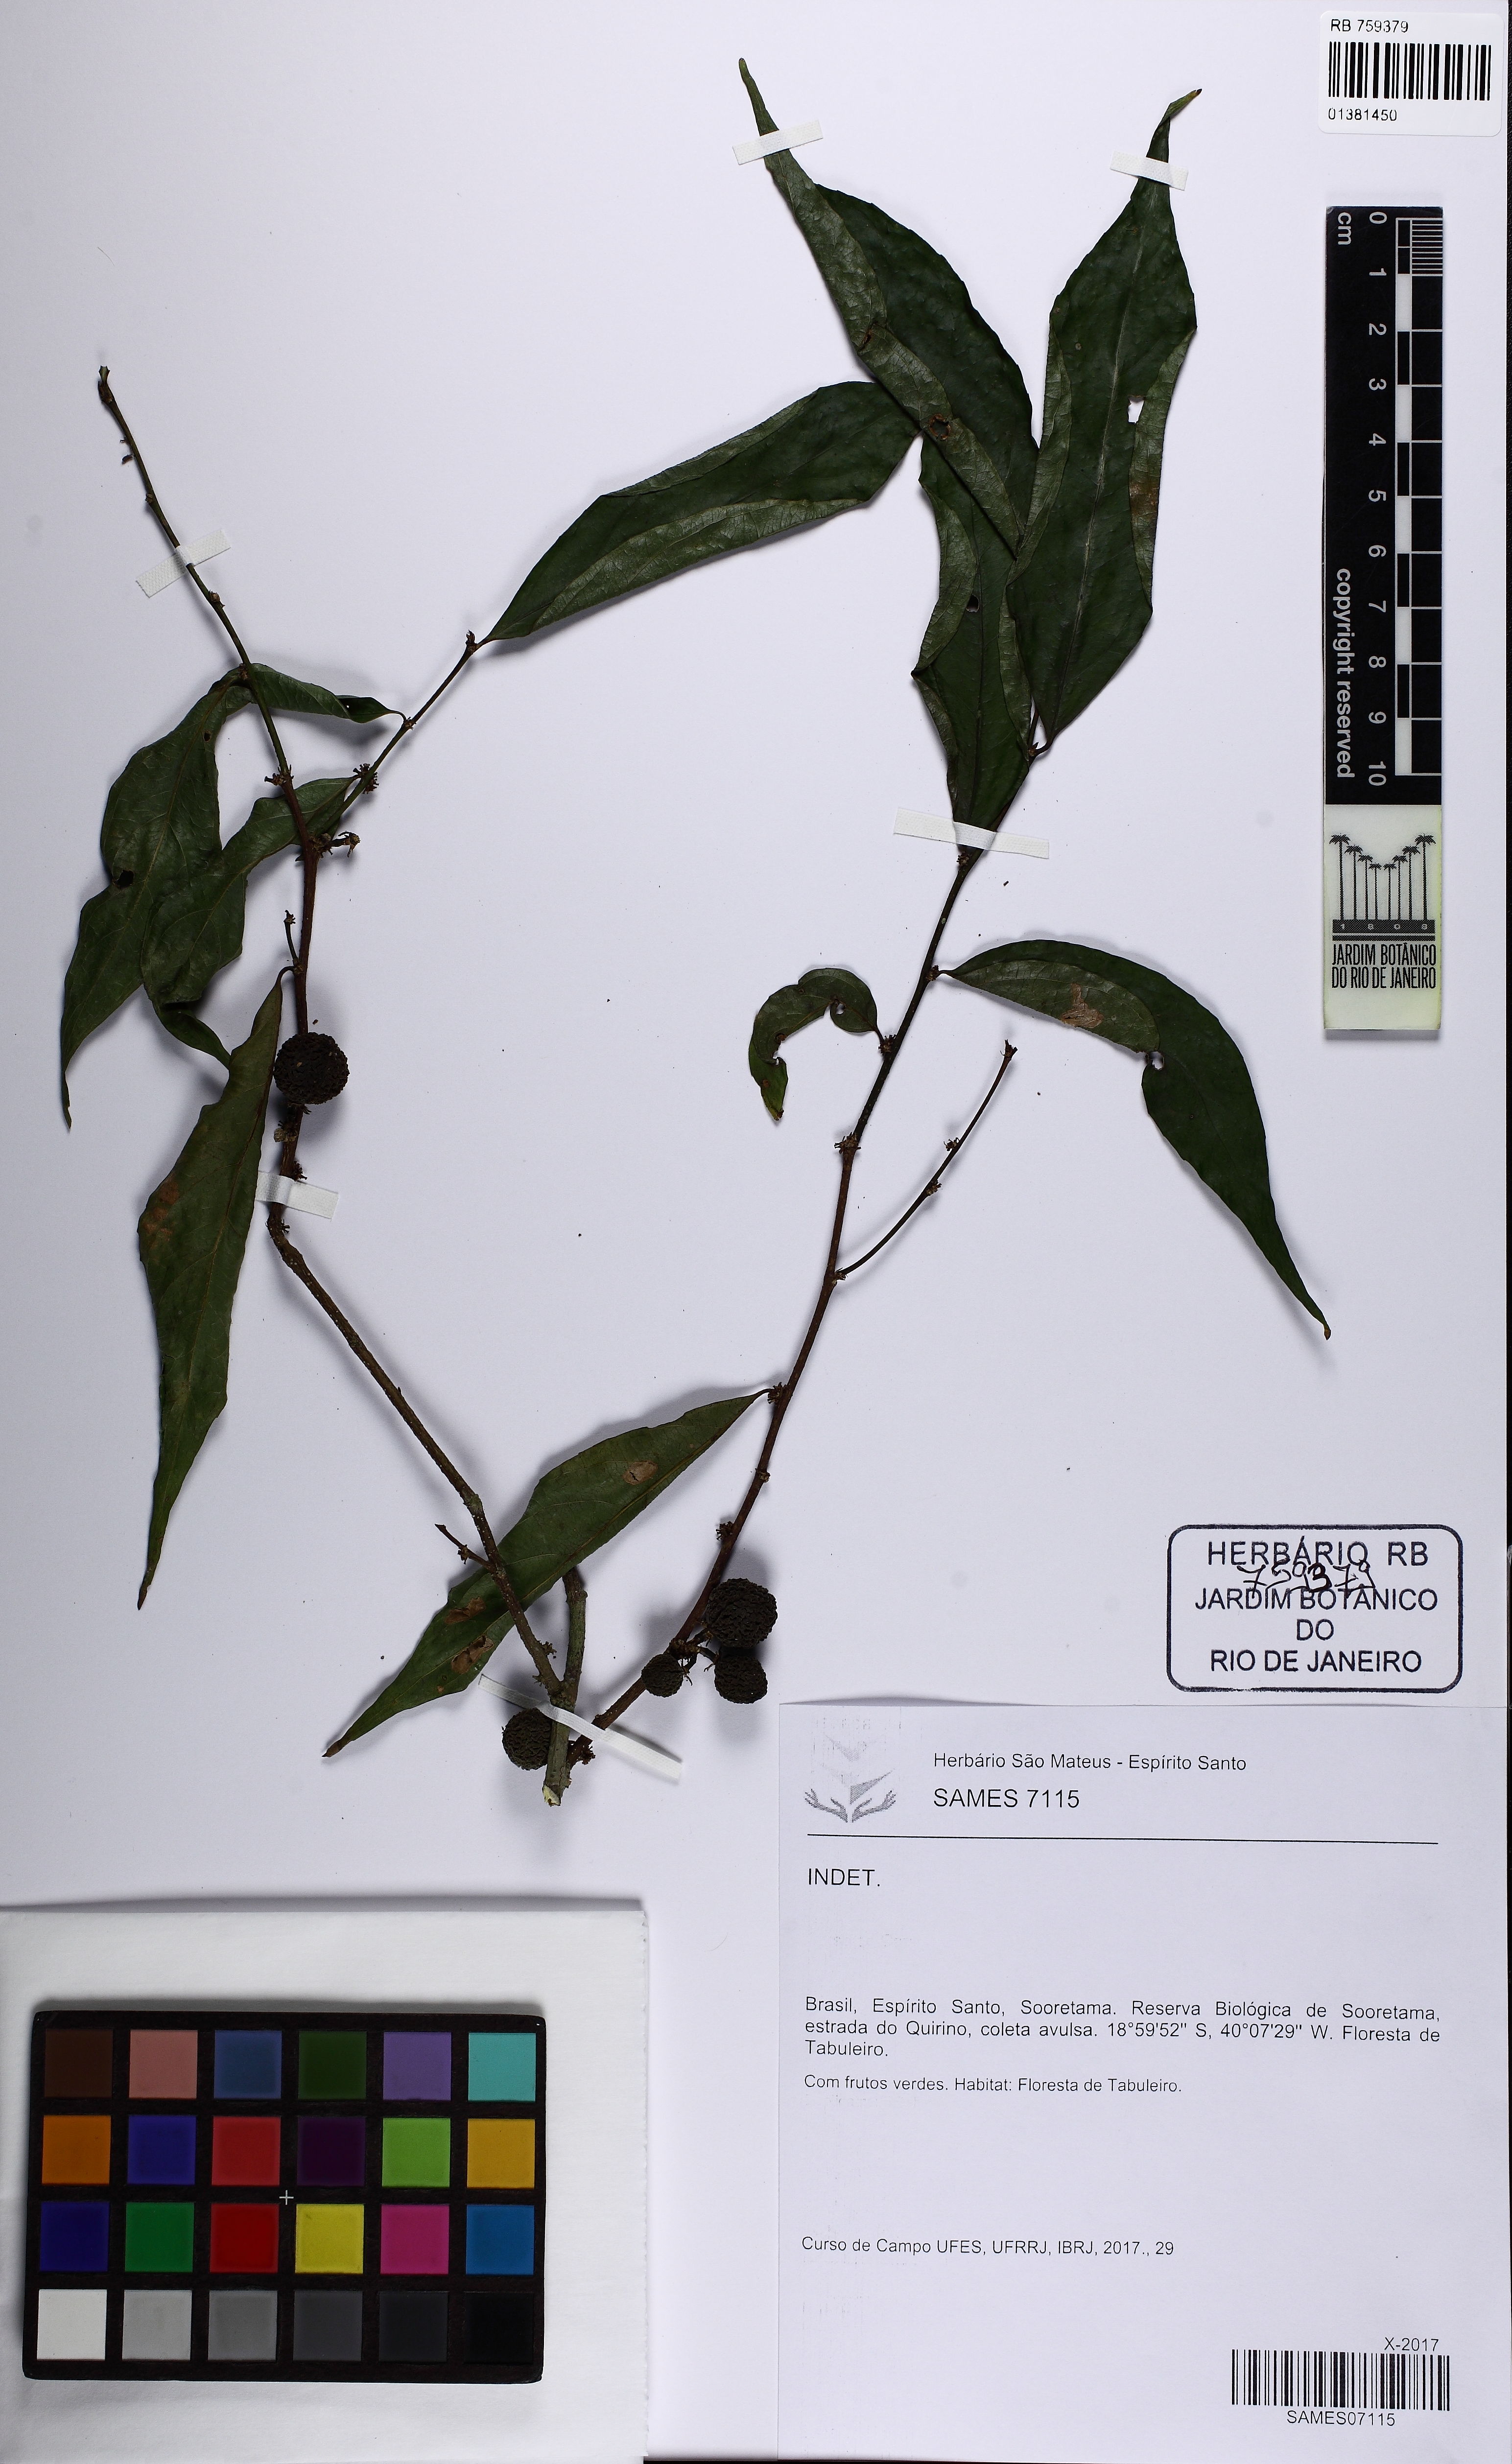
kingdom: Plantae
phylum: Tracheophyta
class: Magnoliopsida
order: Malpighiales
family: Salicaceae
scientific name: Salicaceae
